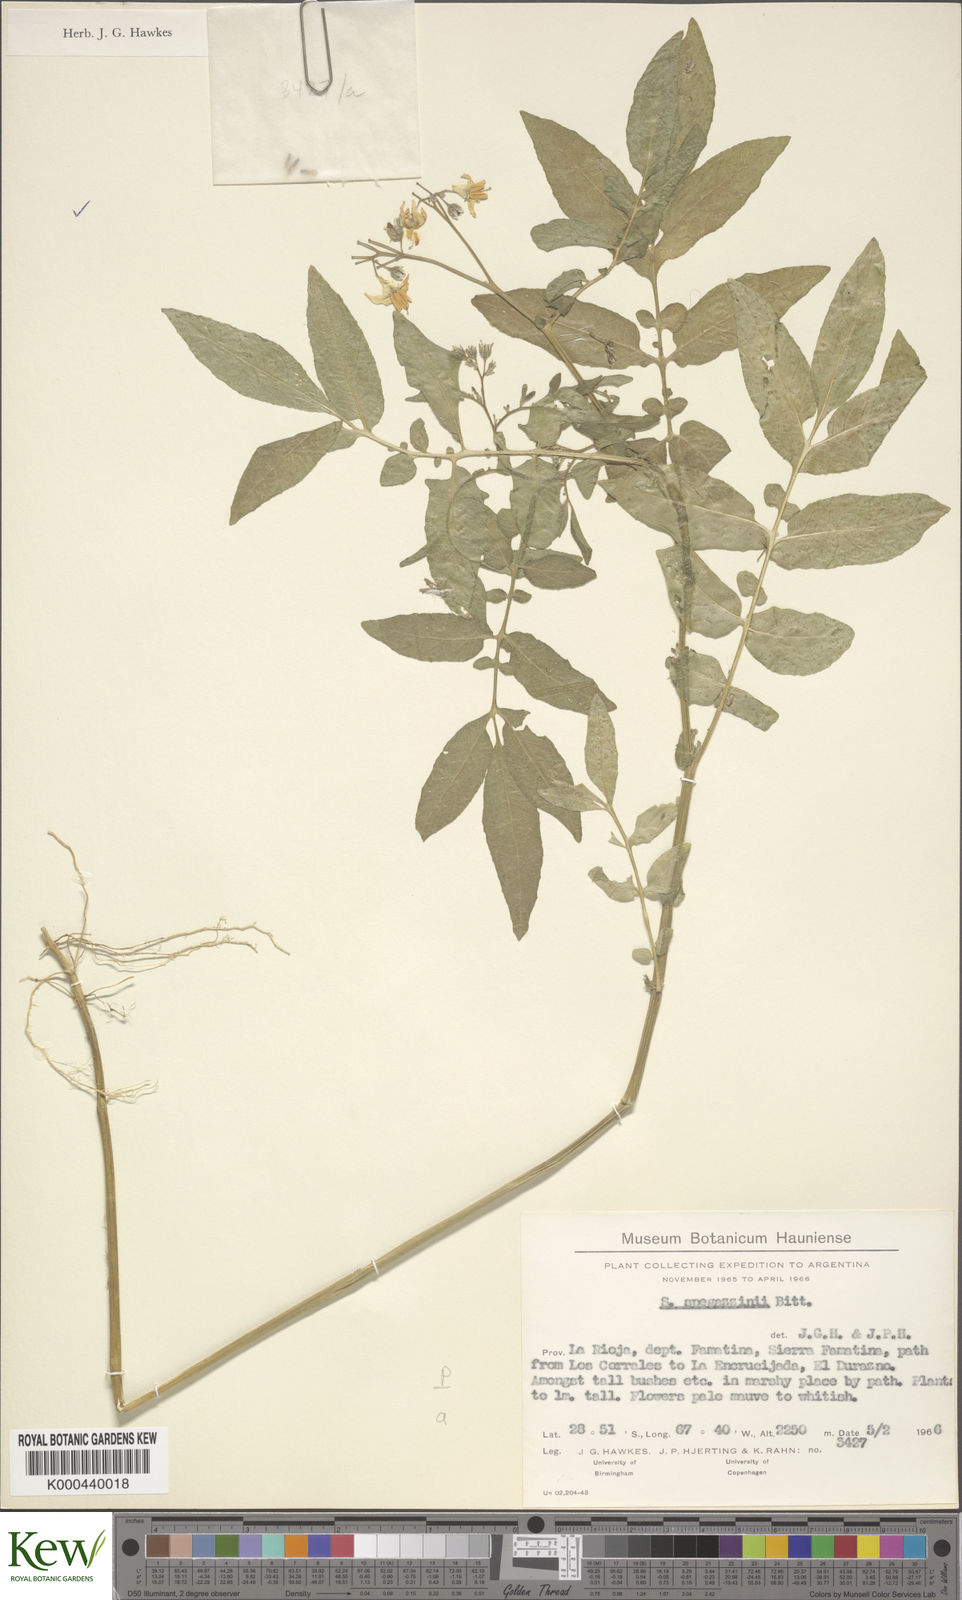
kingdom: Plantae
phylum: Tracheophyta
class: Magnoliopsida
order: Solanales
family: Solanaceae
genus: Solanum
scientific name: Solanum brevicaule
